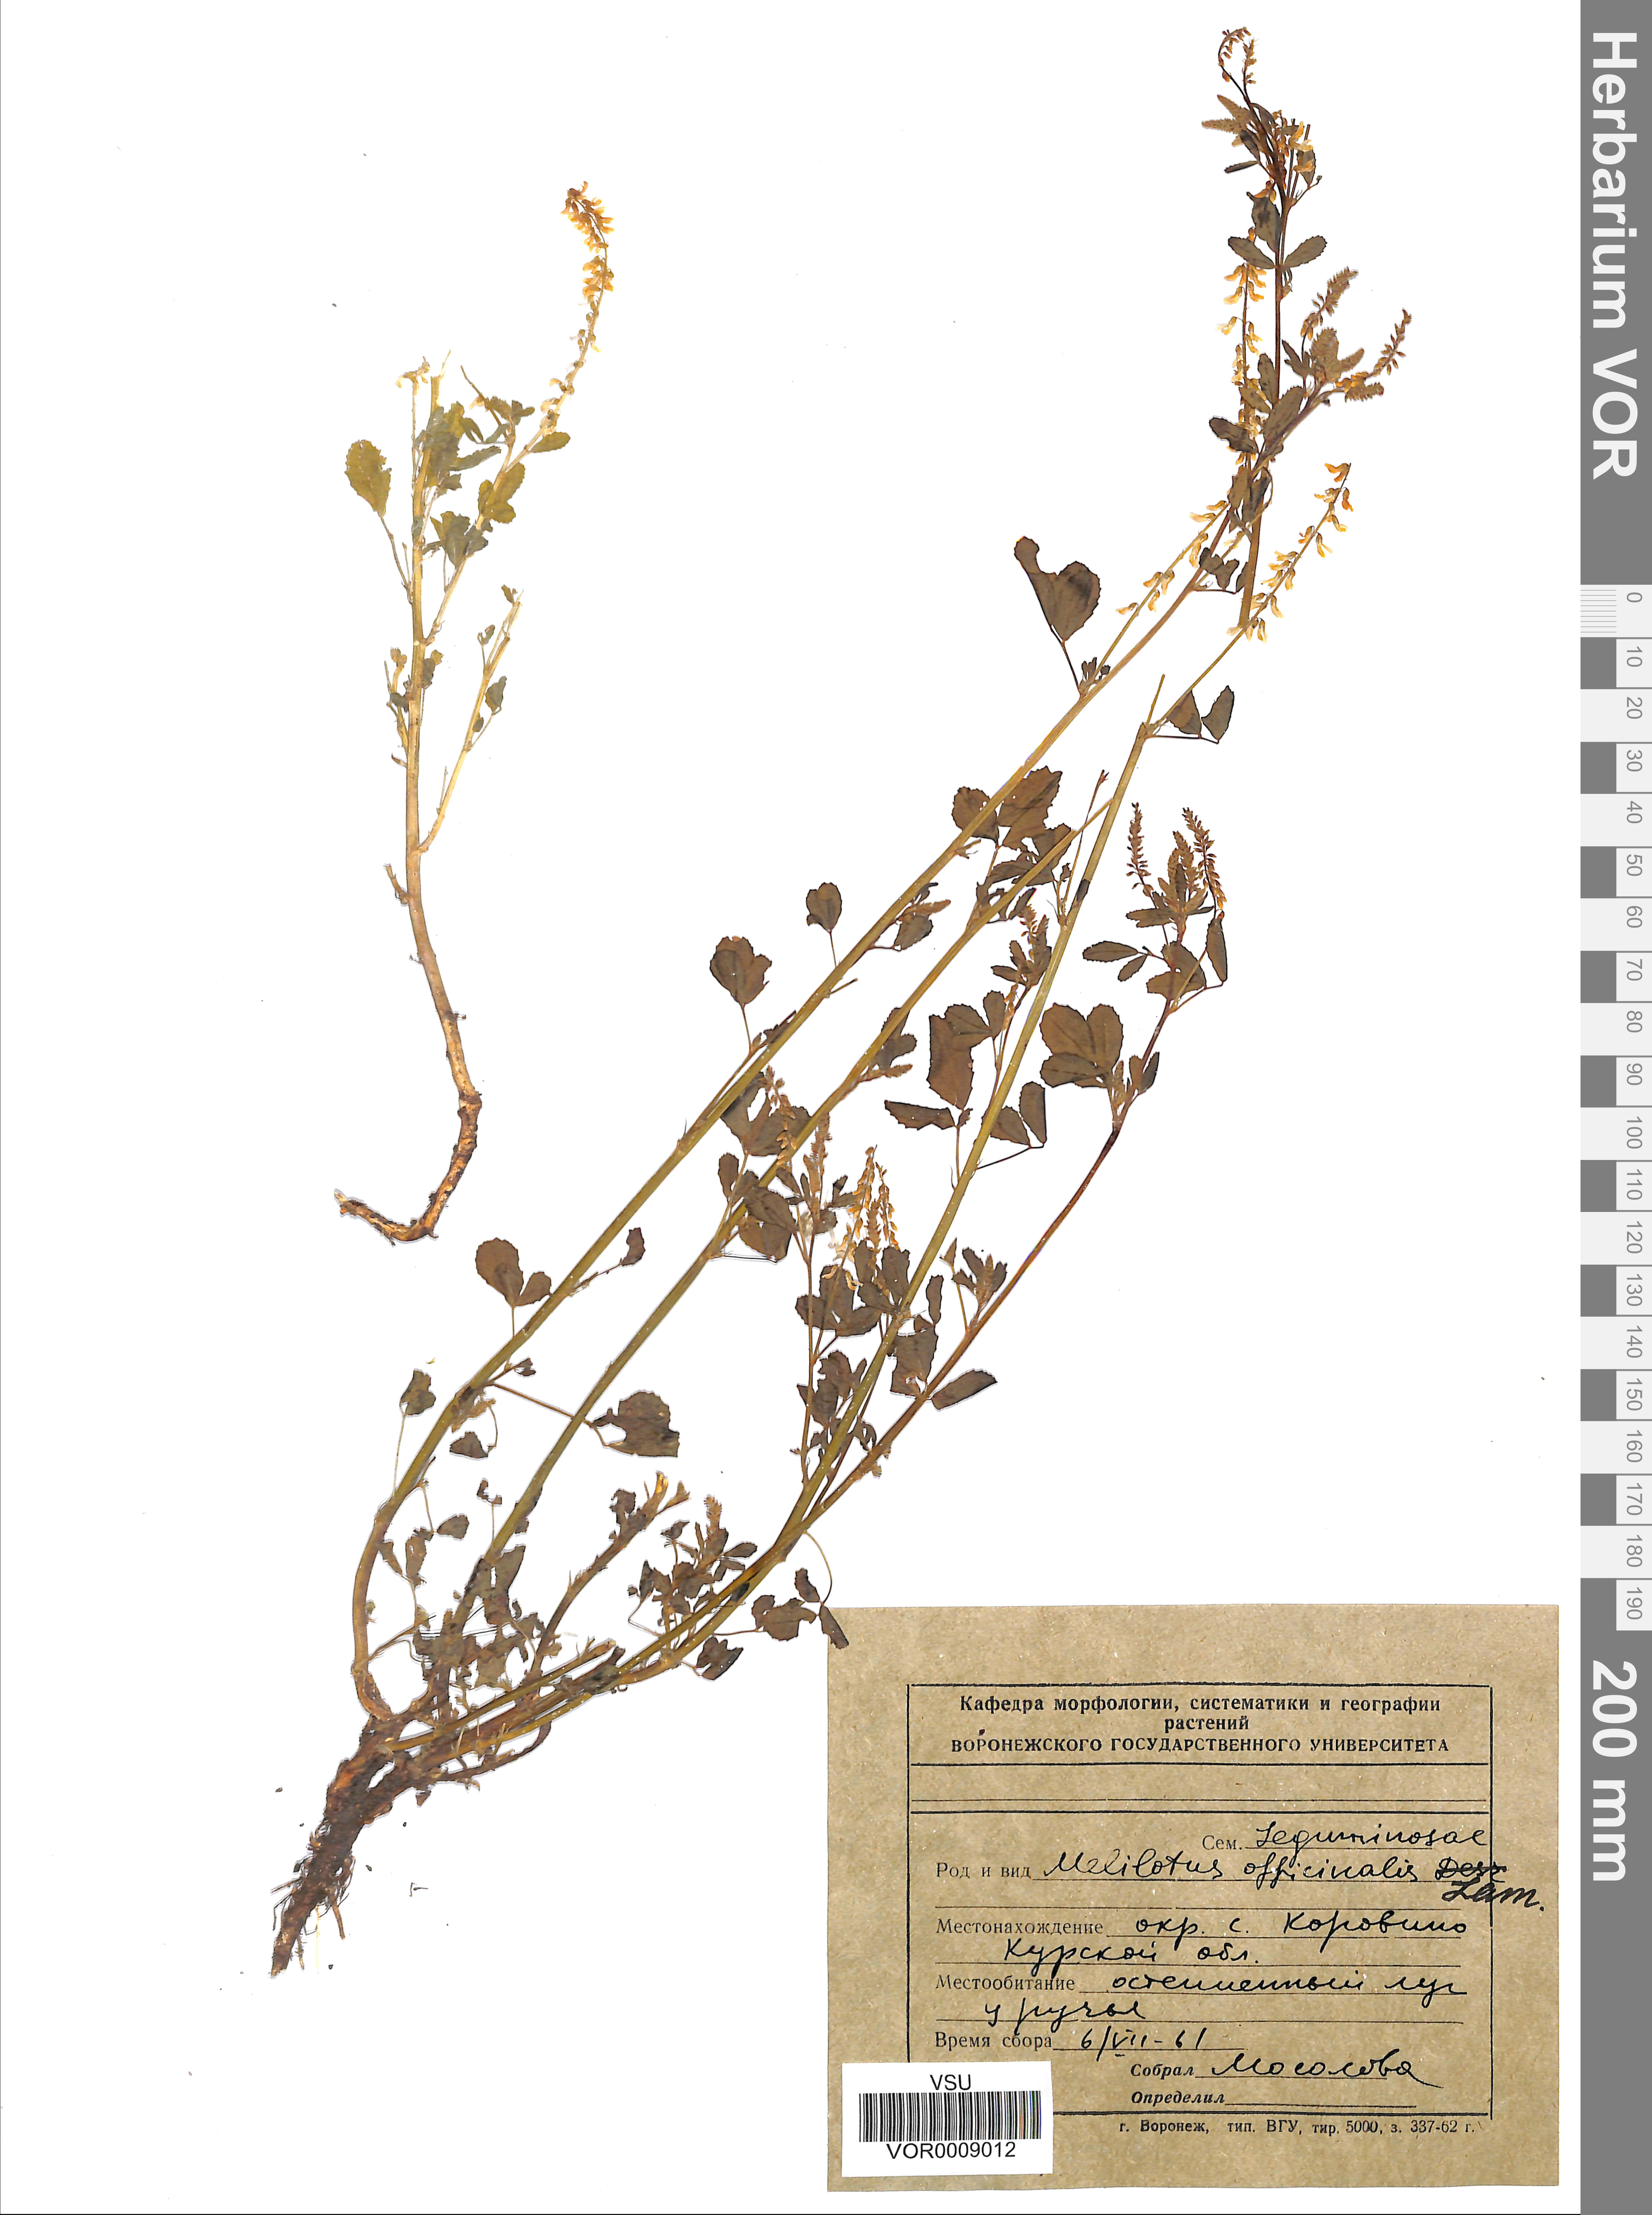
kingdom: Plantae
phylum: Tracheophyta
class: Magnoliopsida
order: Fabales
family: Fabaceae
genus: Melilotus
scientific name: Melilotus officinalis
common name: Sweetclover
